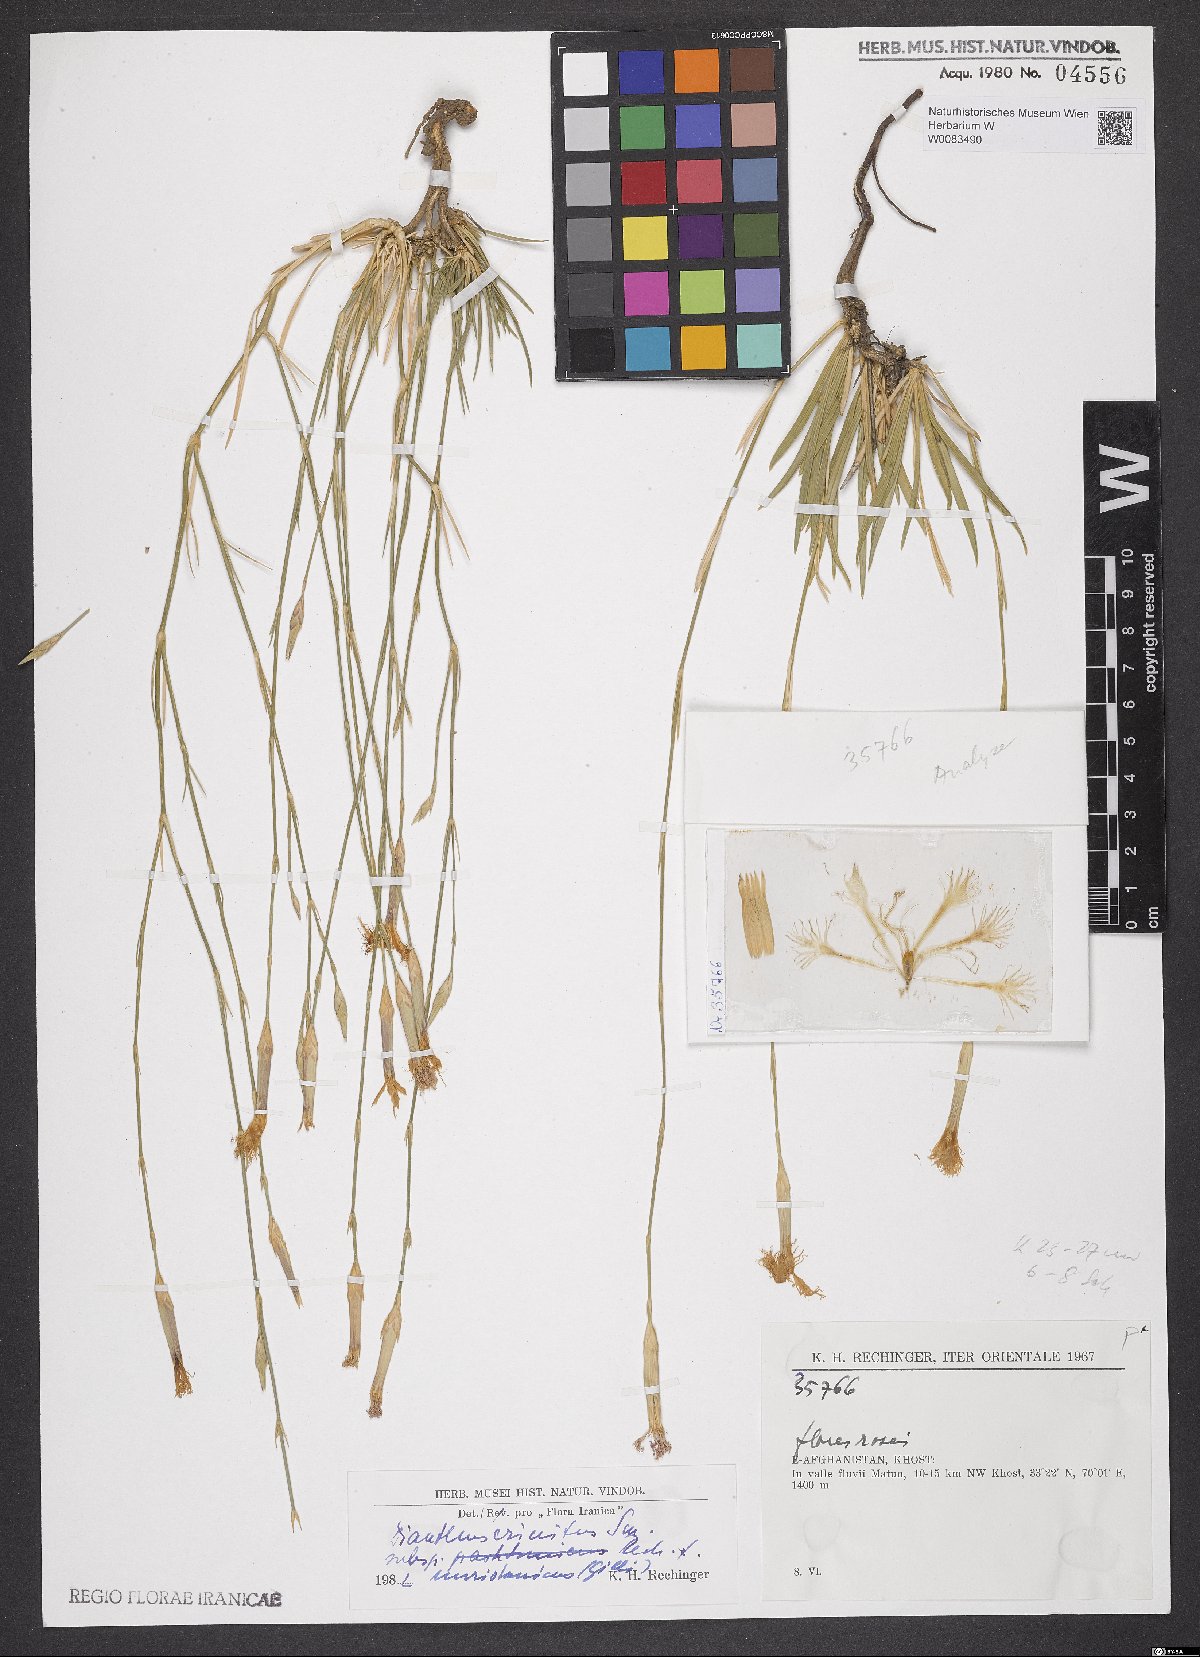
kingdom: Plantae
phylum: Tracheophyta
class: Magnoliopsida
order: Caryophyllales
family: Caryophyllaceae
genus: Dianthus
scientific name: Dianthus crinitus
